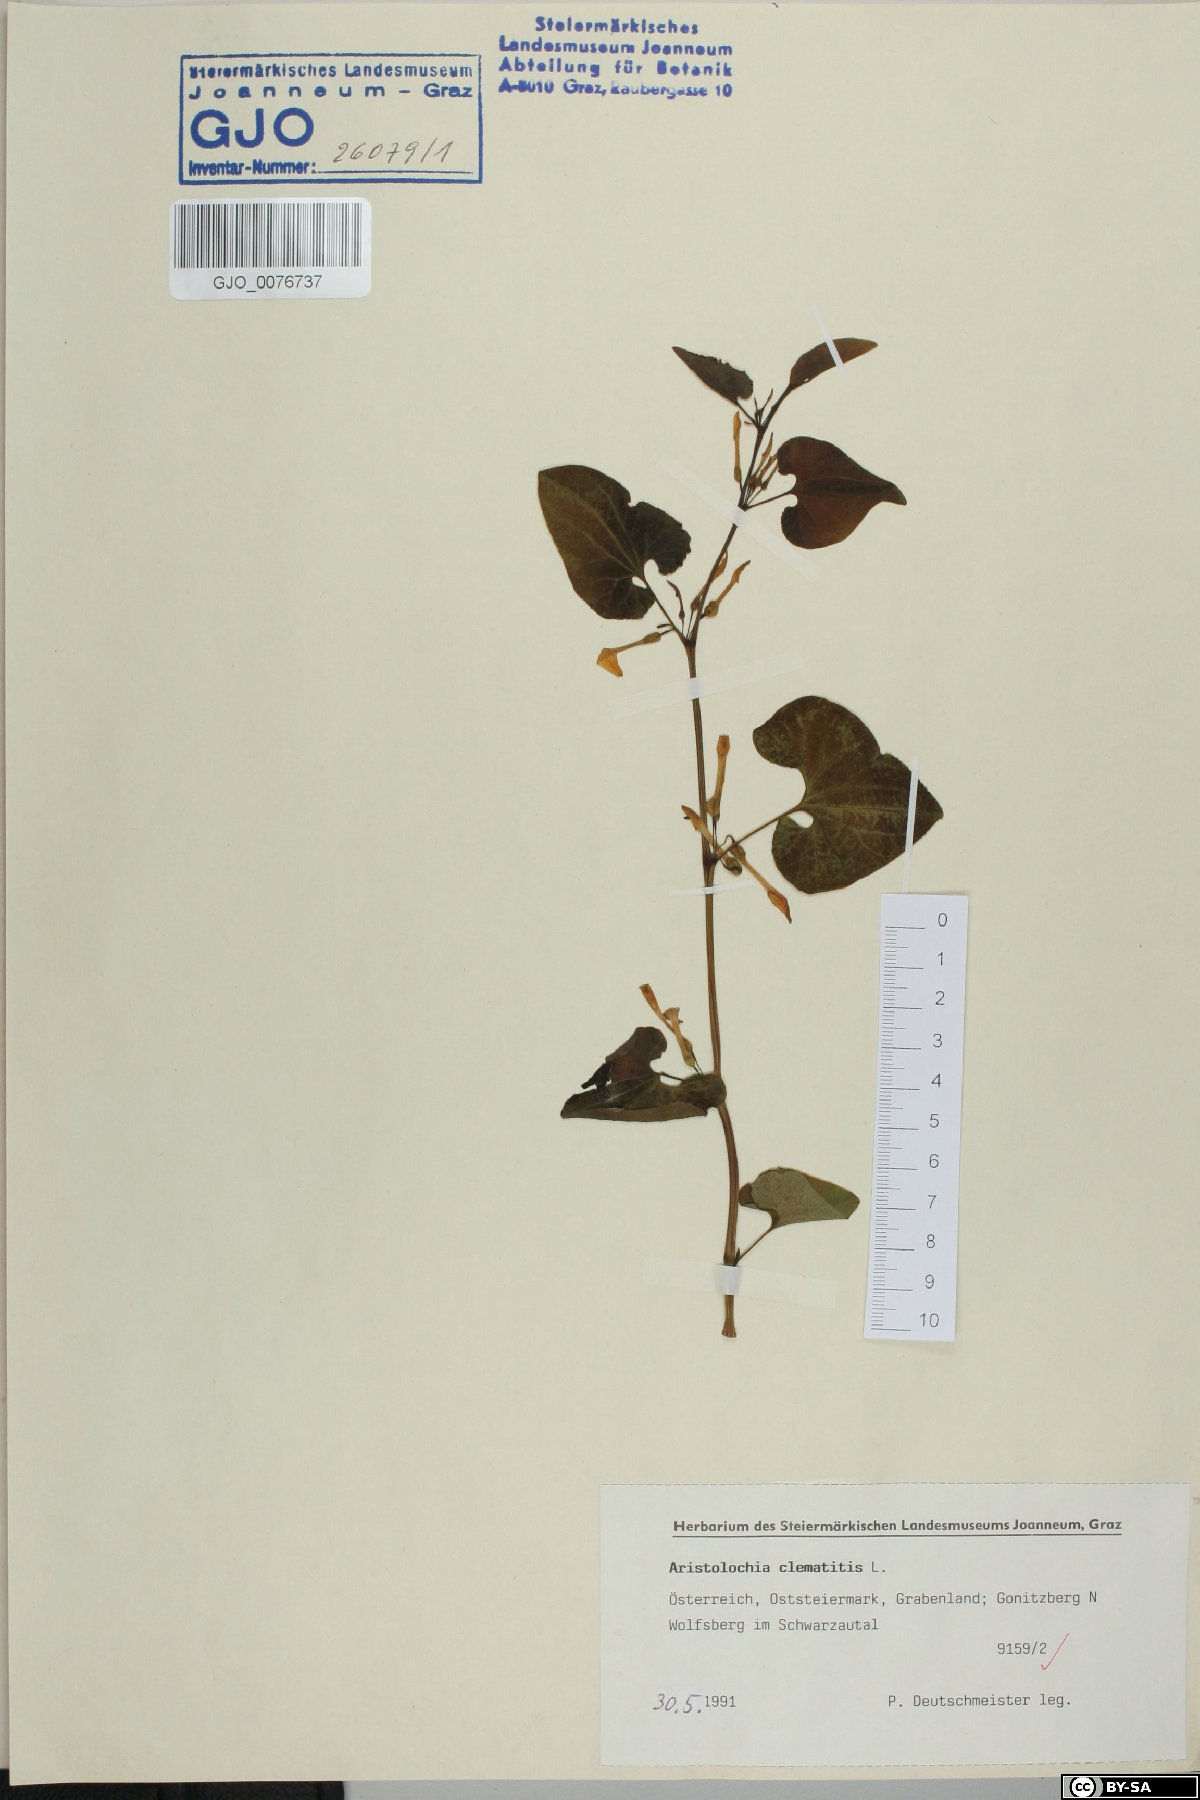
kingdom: Plantae
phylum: Tracheophyta
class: Magnoliopsida
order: Piperales
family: Aristolochiaceae
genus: Aristolochia
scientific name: Aristolochia clematitis
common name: Birthwort
